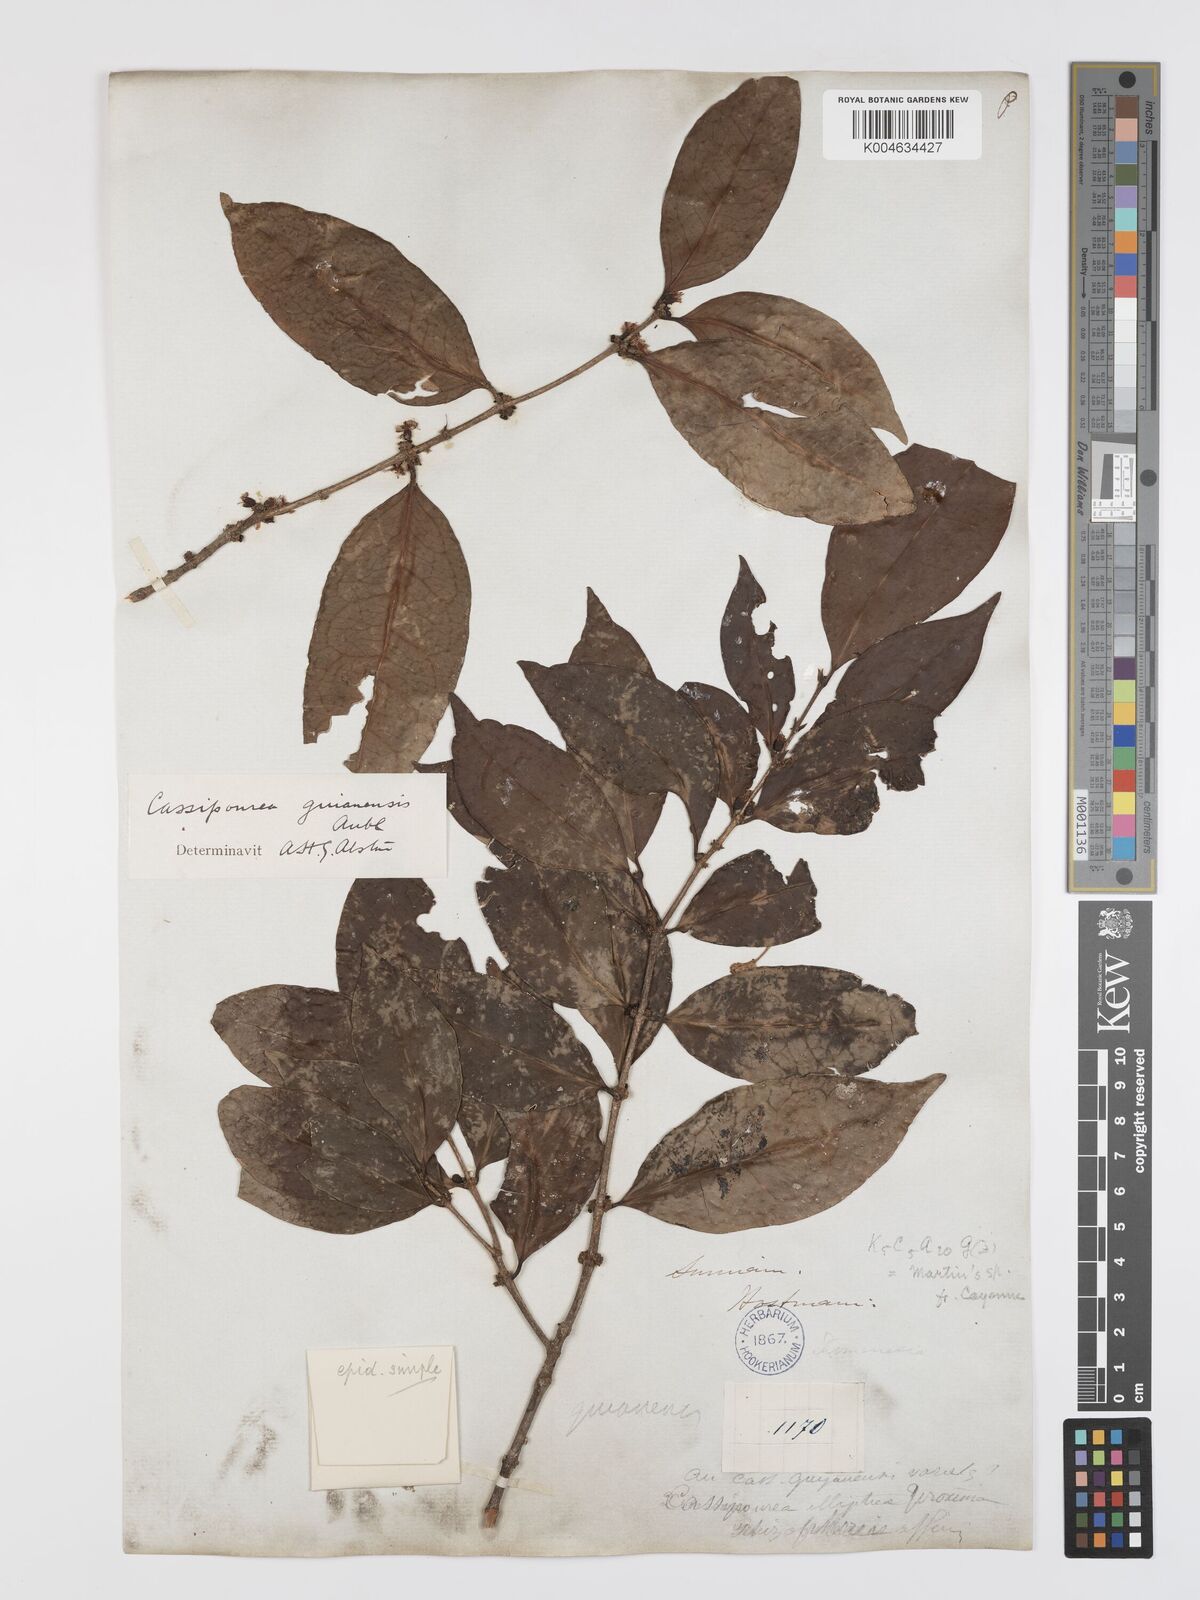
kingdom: Plantae
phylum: Tracheophyta
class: Magnoliopsida
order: Malpighiales
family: Rhizophoraceae
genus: Cassipourea
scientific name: Cassipourea guianensis
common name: Bastard waterwood
